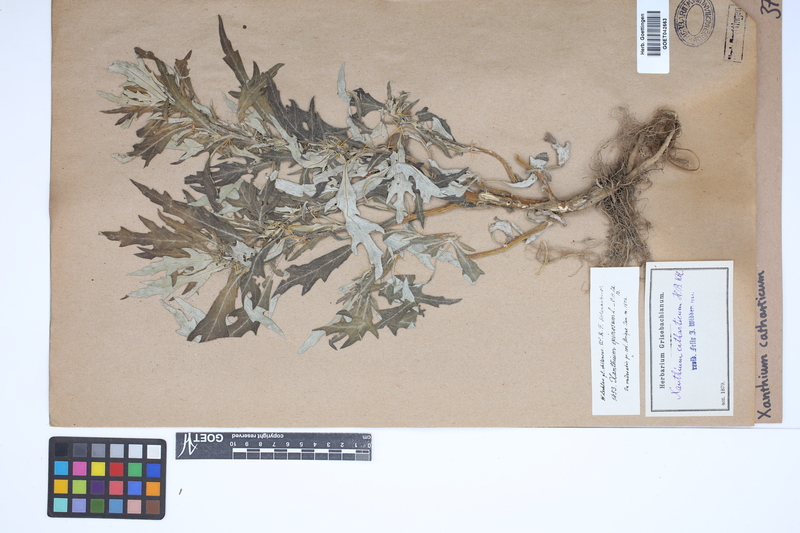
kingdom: Plantae
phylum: Tracheophyta
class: Magnoliopsida
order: Asterales
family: Asteraceae
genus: Xanthium
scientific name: Xanthium spinosum
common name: Spiny cocklebur
